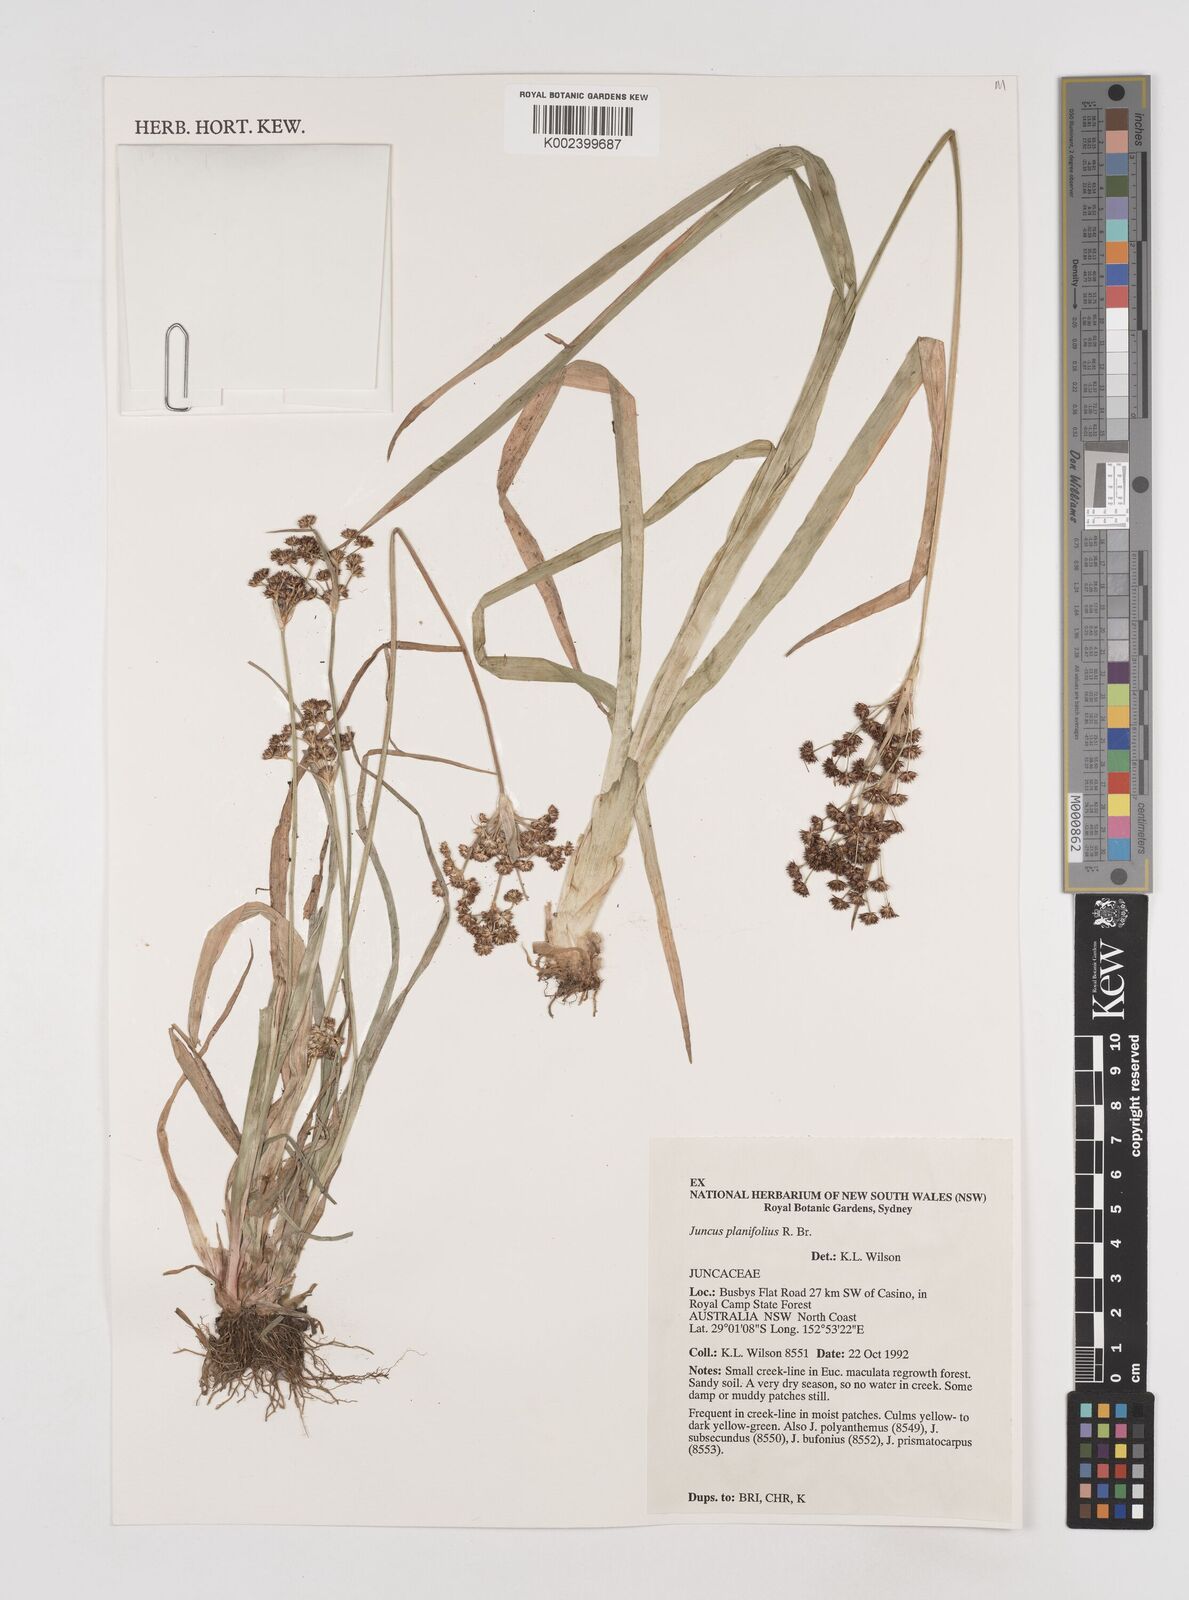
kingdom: Plantae
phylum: Tracheophyta
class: Liliopsida
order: Poales
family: Juncaceae
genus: Juncus
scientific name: Juncus planifolius
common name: Broadleaf rush
